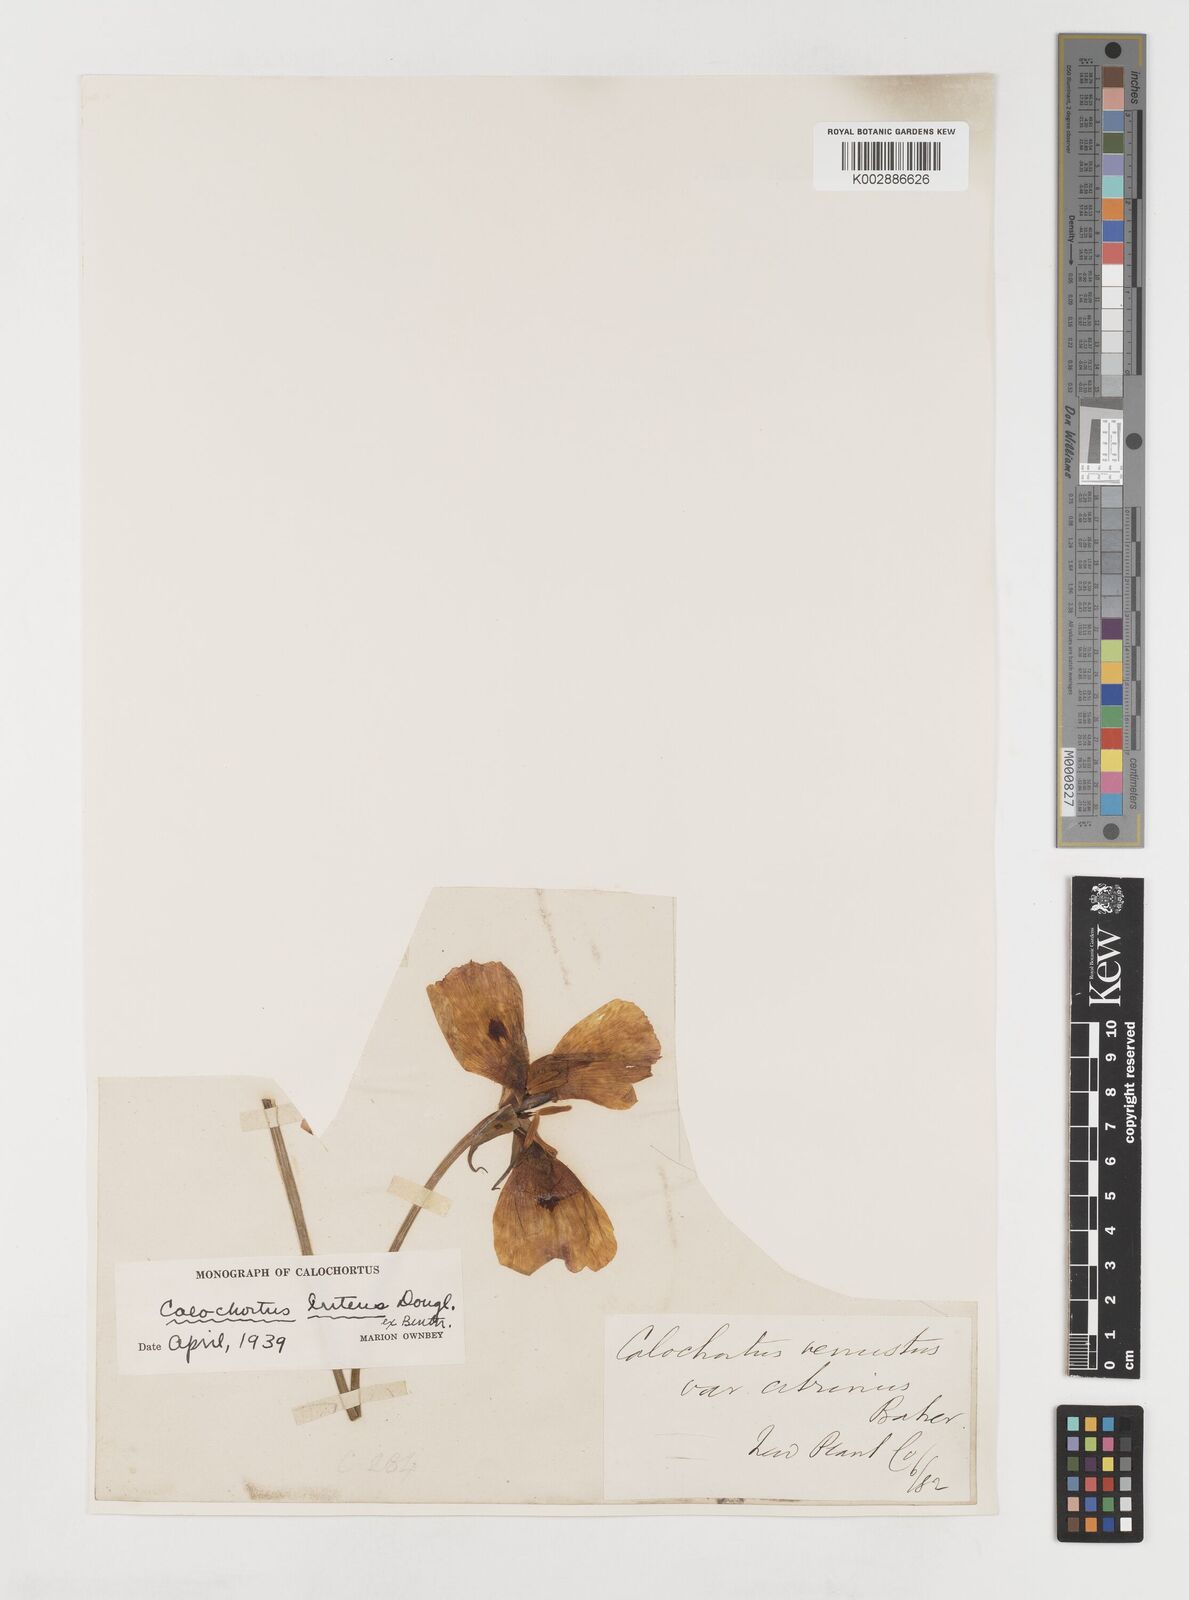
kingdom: Plantae
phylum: Tracheophyta
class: Liliopsida
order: Liliales
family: Liliaceae
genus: Calochortus
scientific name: Calochortus nuttallii
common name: Sego-lily
